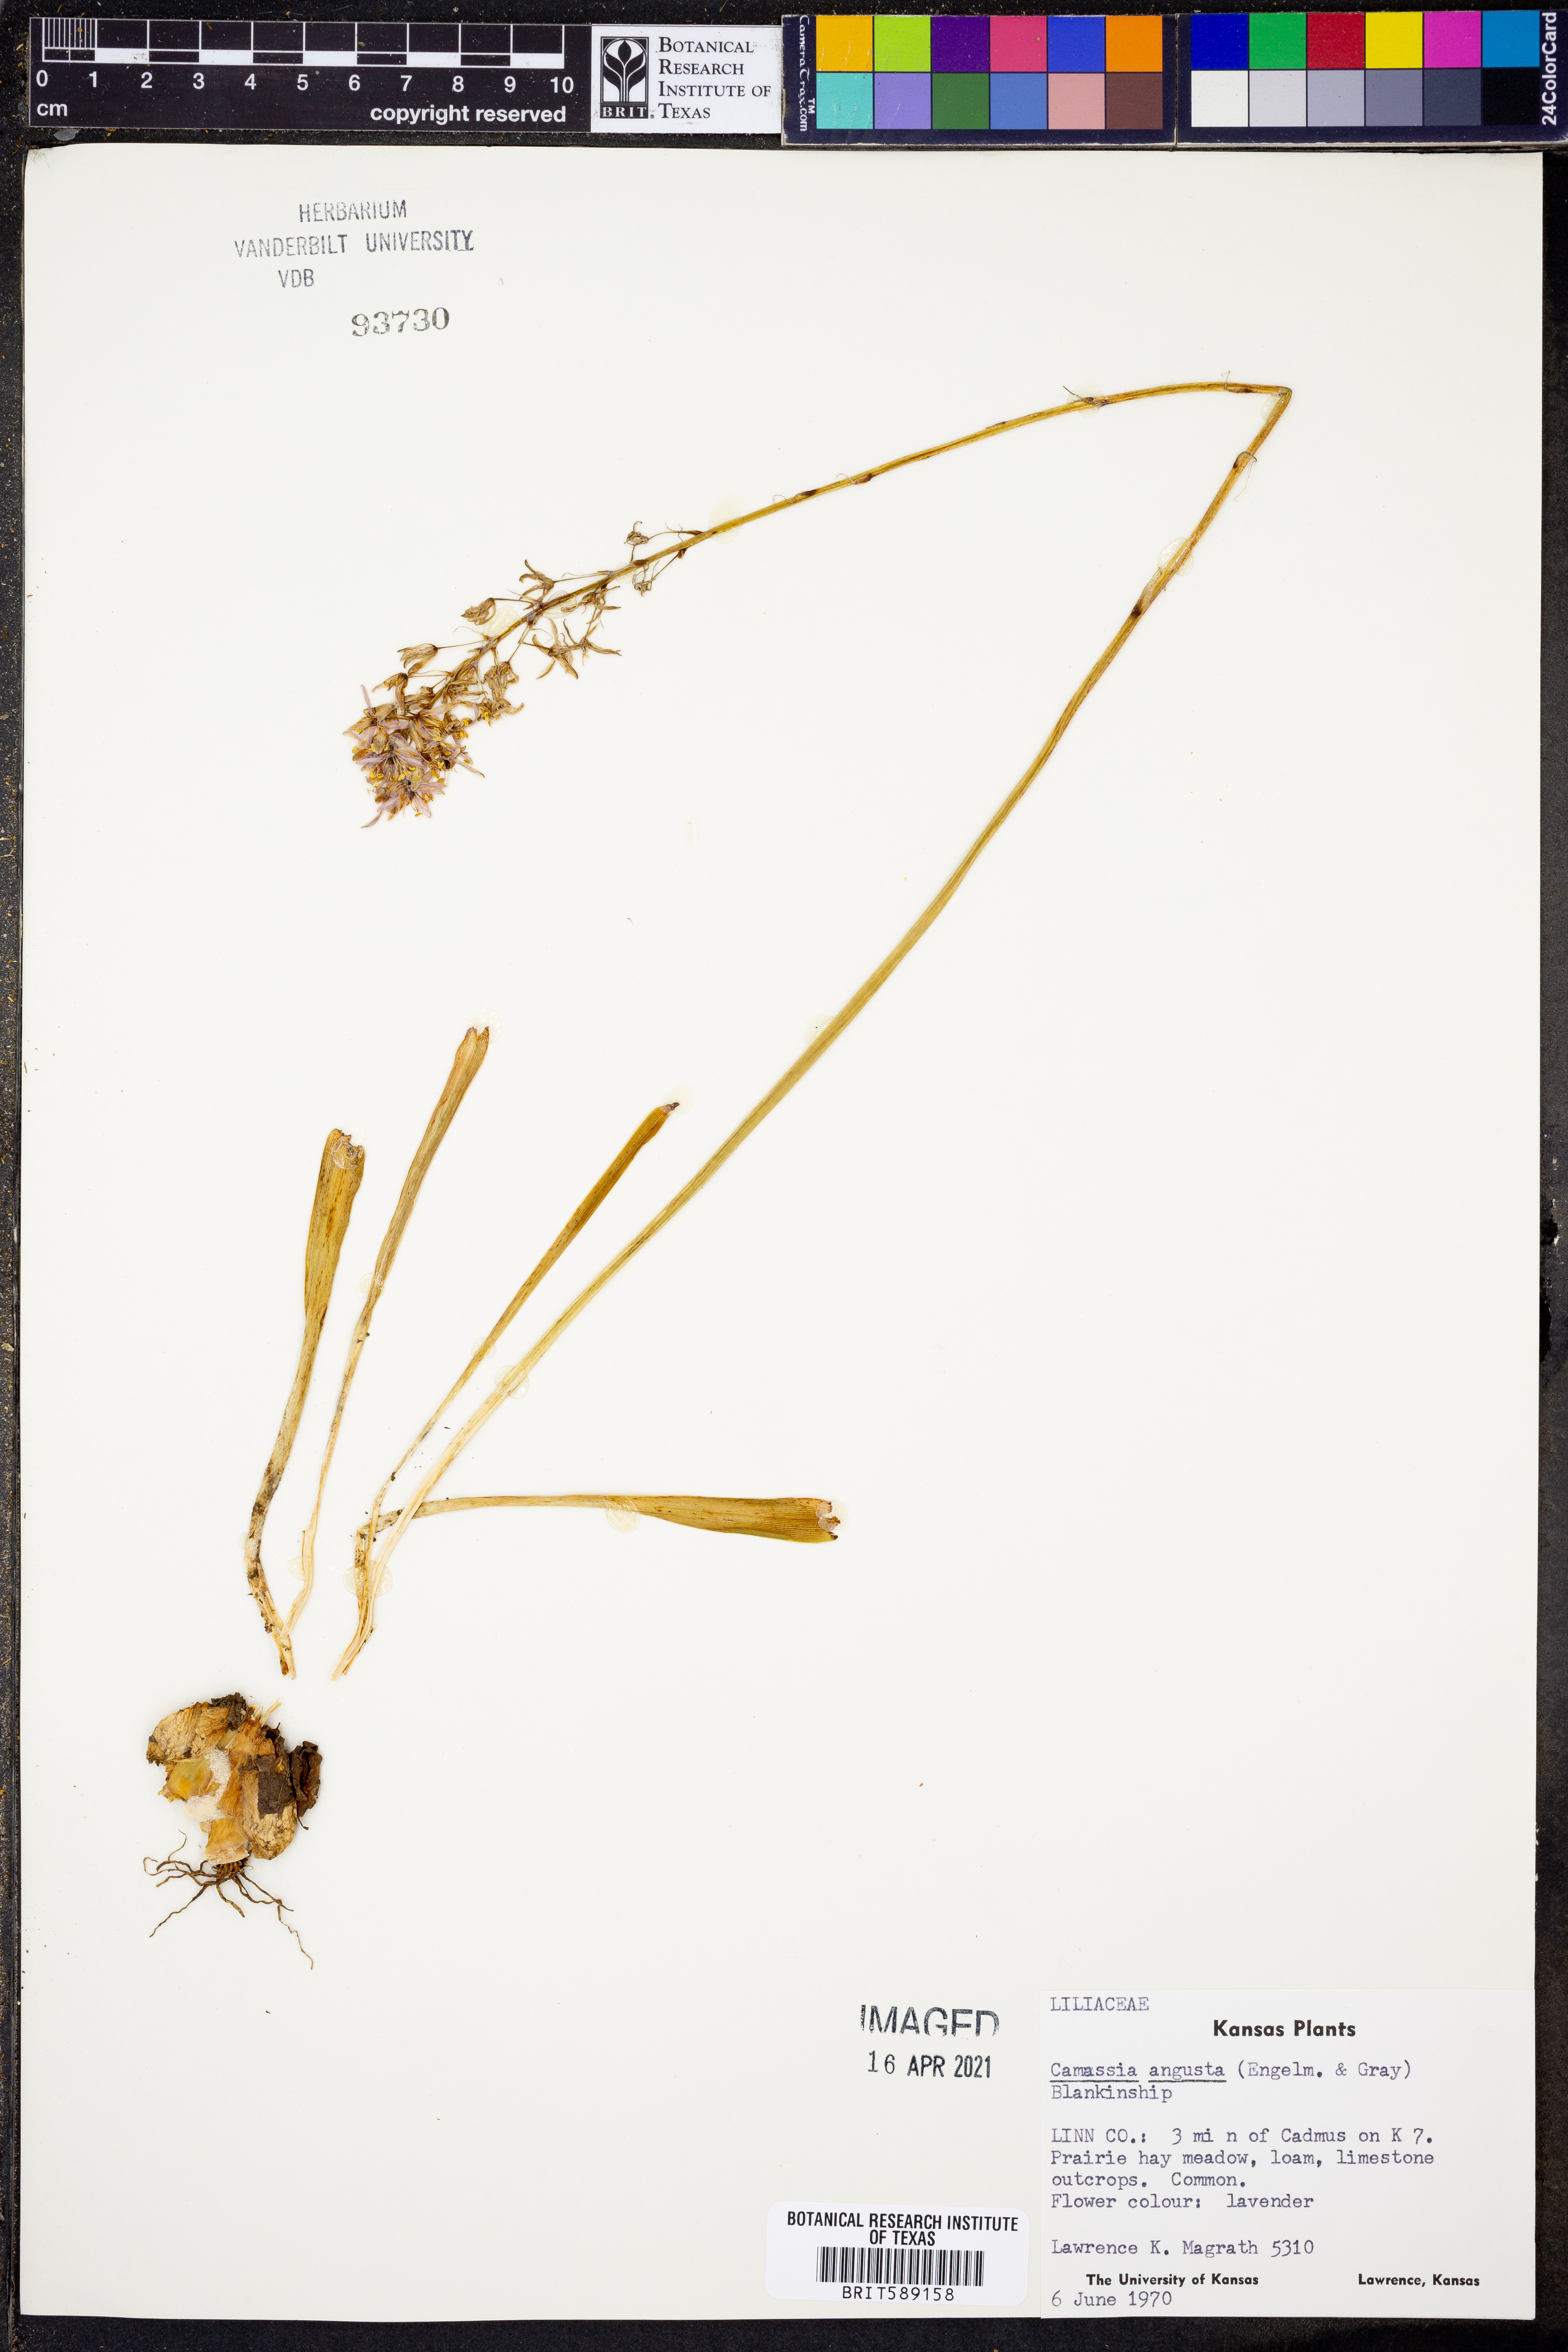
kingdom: Plantae
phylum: Tracheophyta
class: Liliopsida
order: Asparagales
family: Asparagaceae
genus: Camassia
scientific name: Camassia angusta
